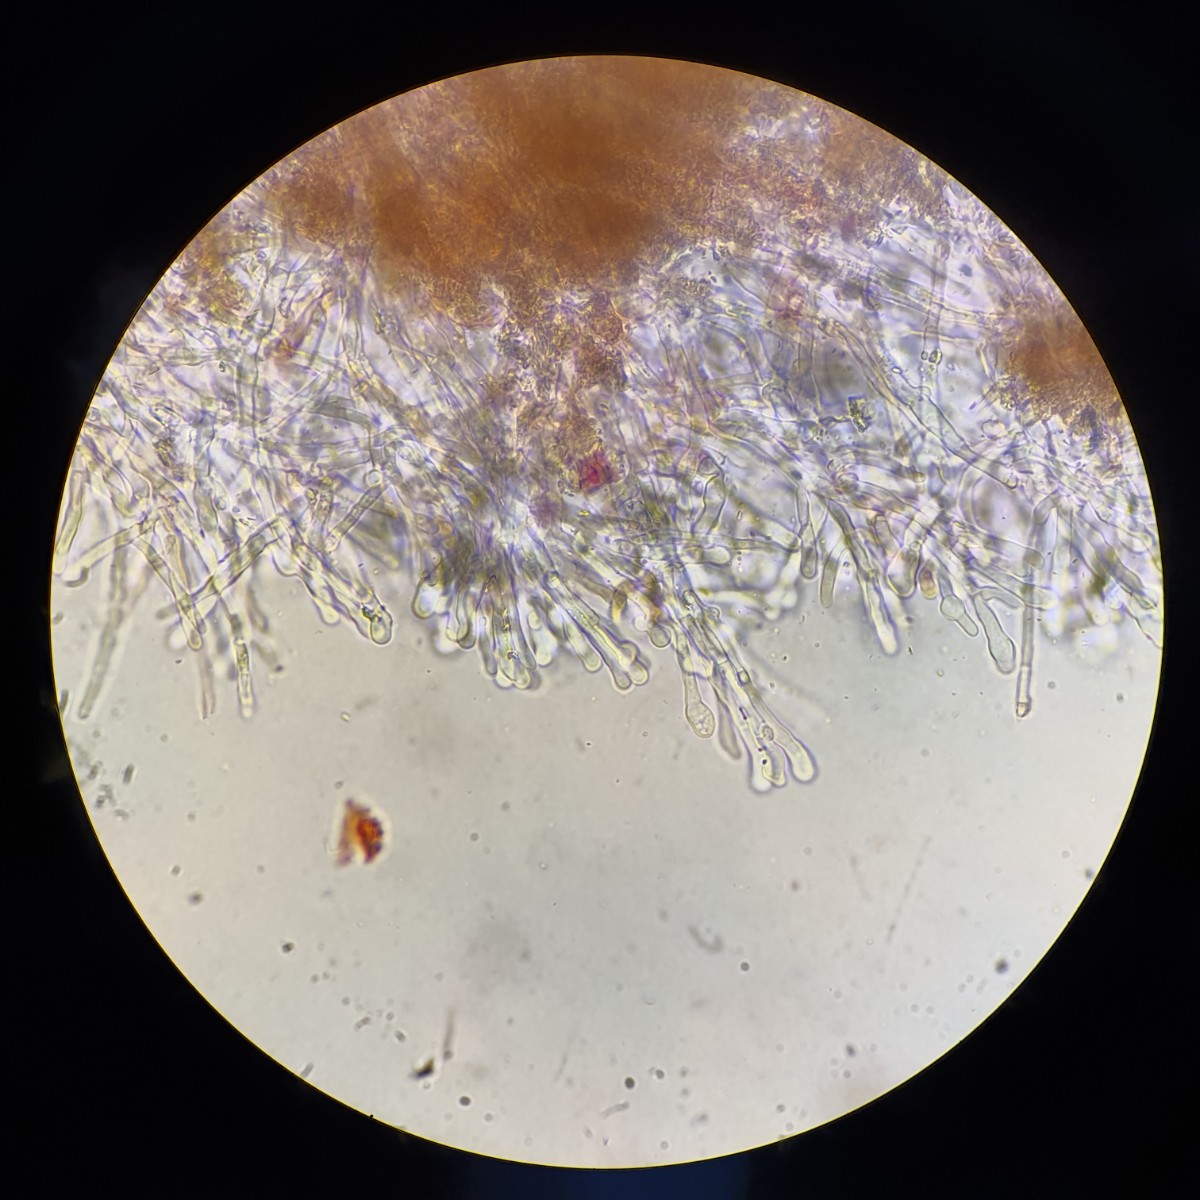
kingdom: Fungi
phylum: Basidiomycota
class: Agaricomycetes
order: Hymenochaetales
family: Schizoporaceae
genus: Xylodon
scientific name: Xylodon radula
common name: grovtandet kalkskind
